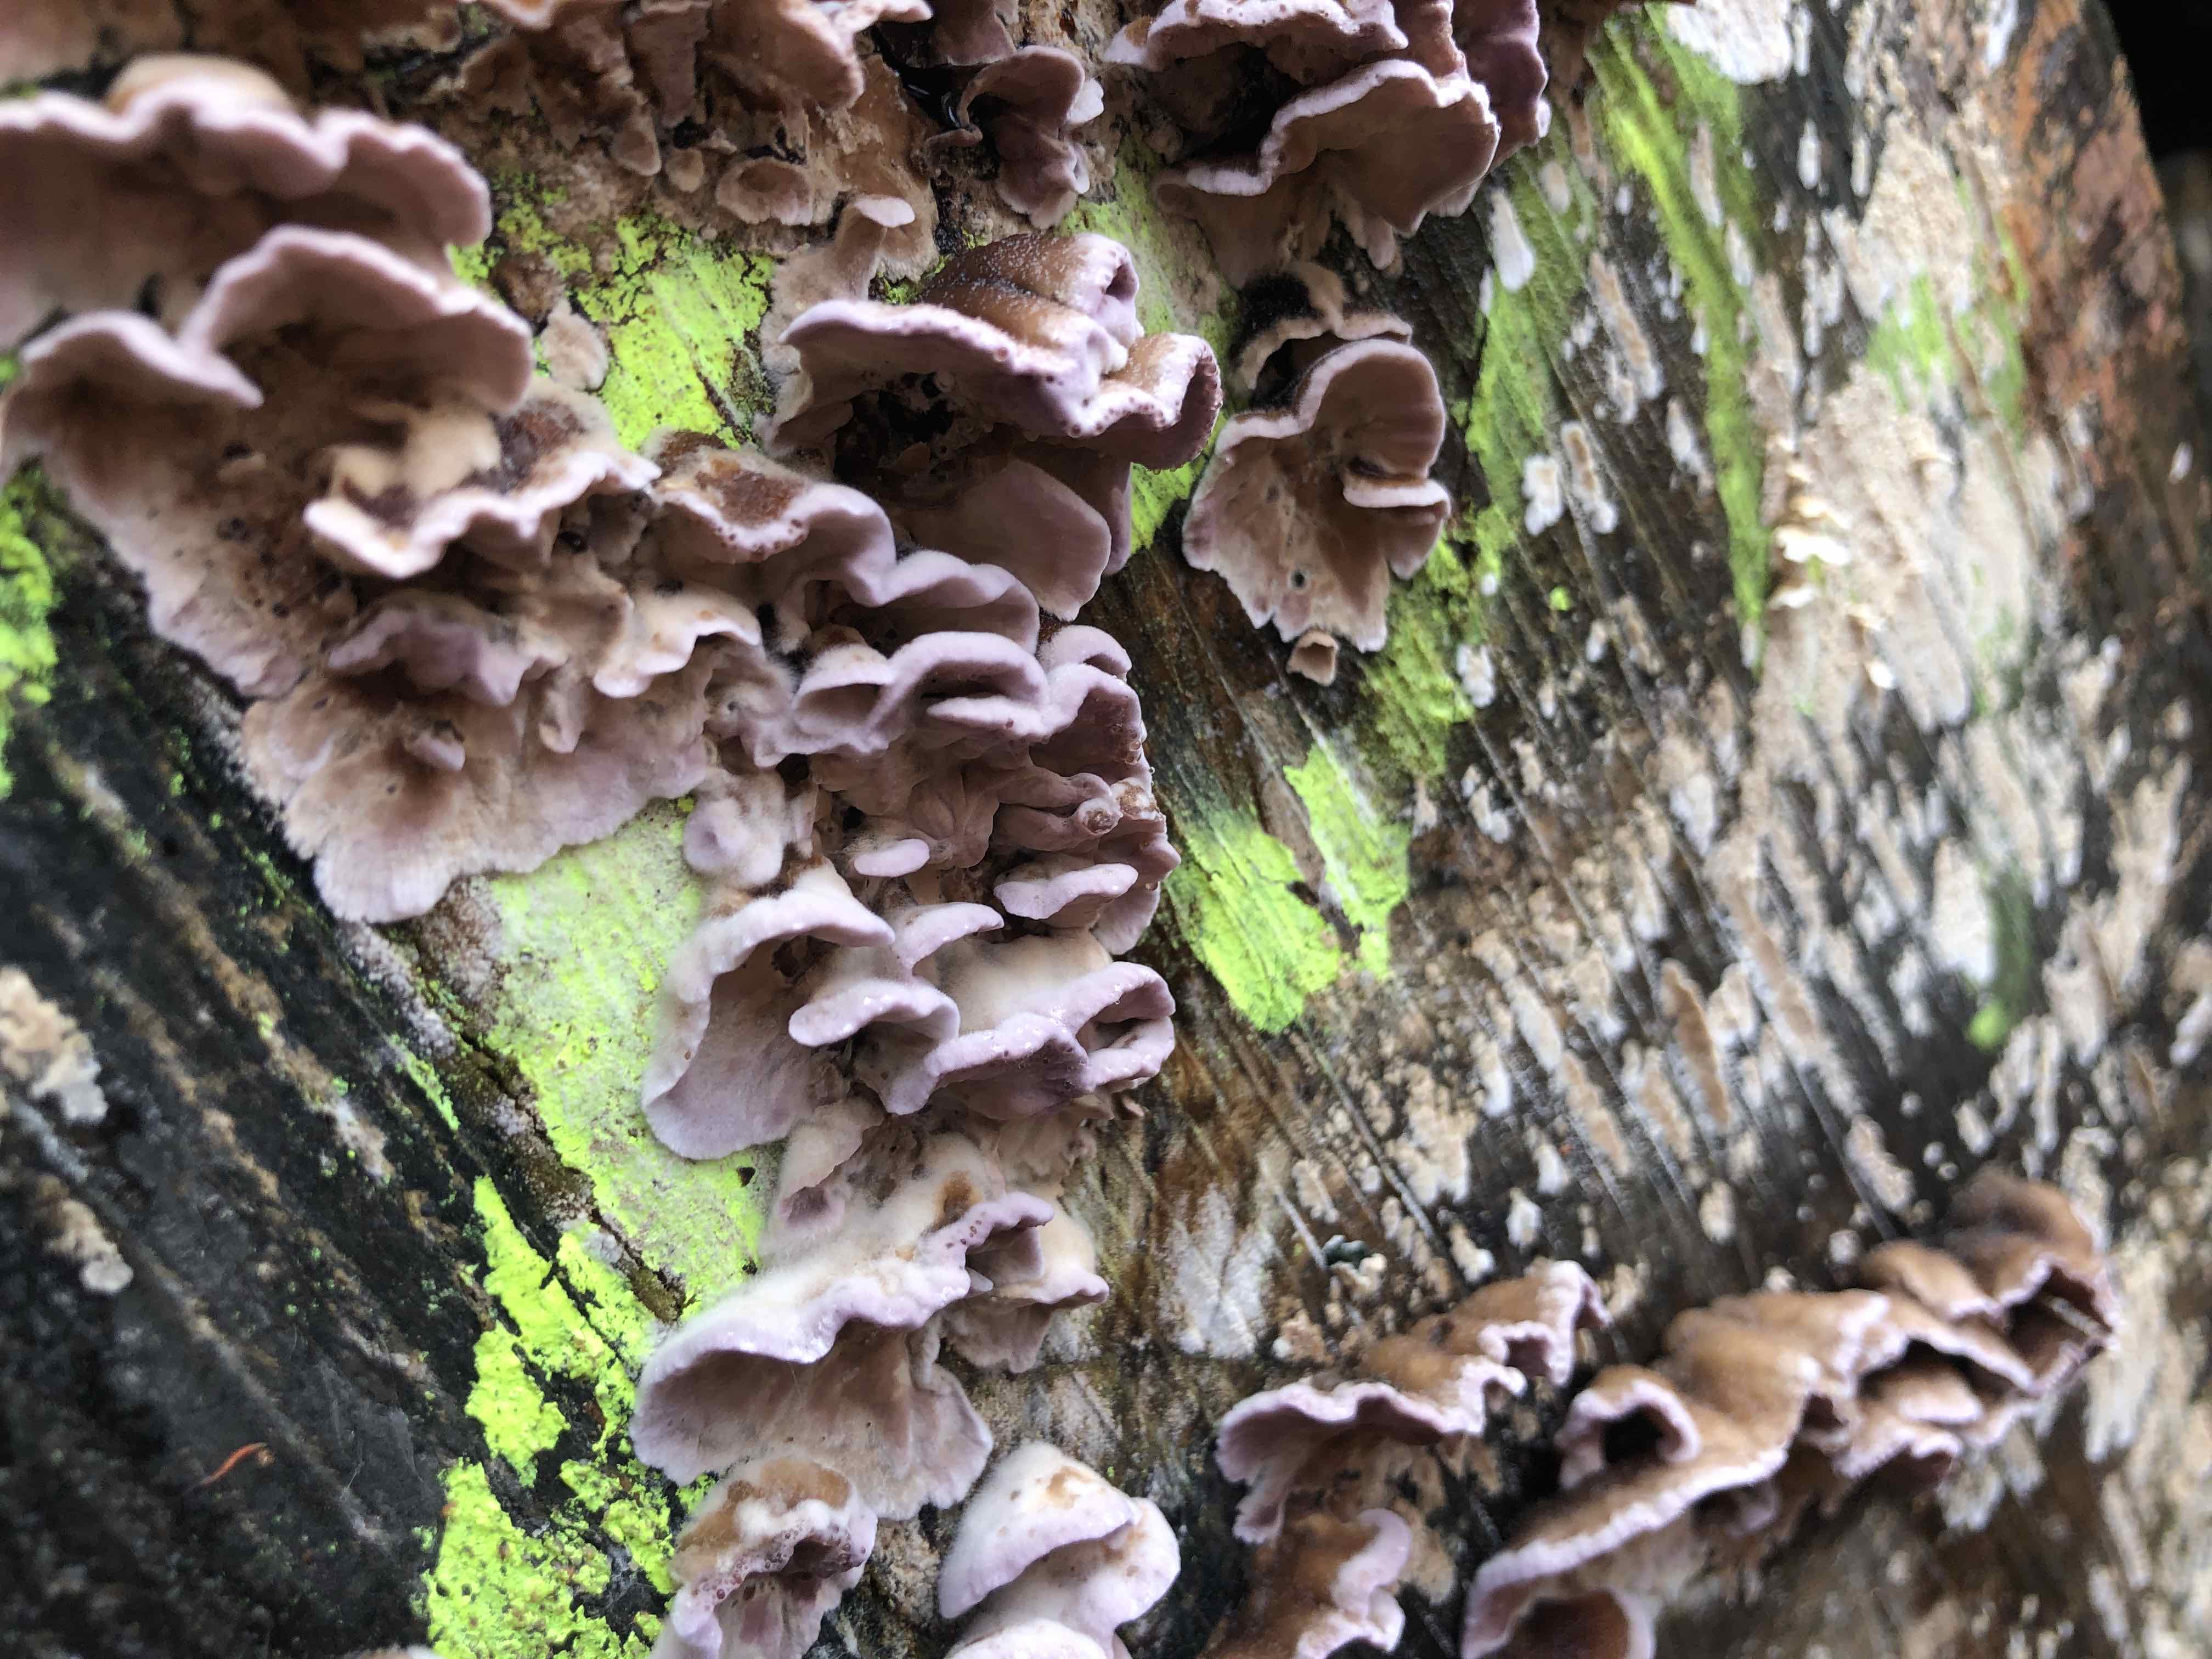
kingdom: Fungi
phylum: Basidiomycota
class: Agaricomycetes
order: Agaricales
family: Cyphellaceae
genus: Chondrostereum
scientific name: Chondrostereum purpureum
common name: purpurlædersvamp
